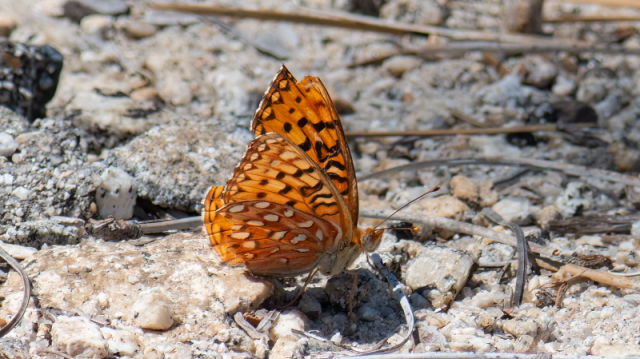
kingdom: Animalia
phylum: Arthropoda
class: Insecta
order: Lepidoptera
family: Nymphalidae
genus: Speyeria
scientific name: Speyeria coronis
